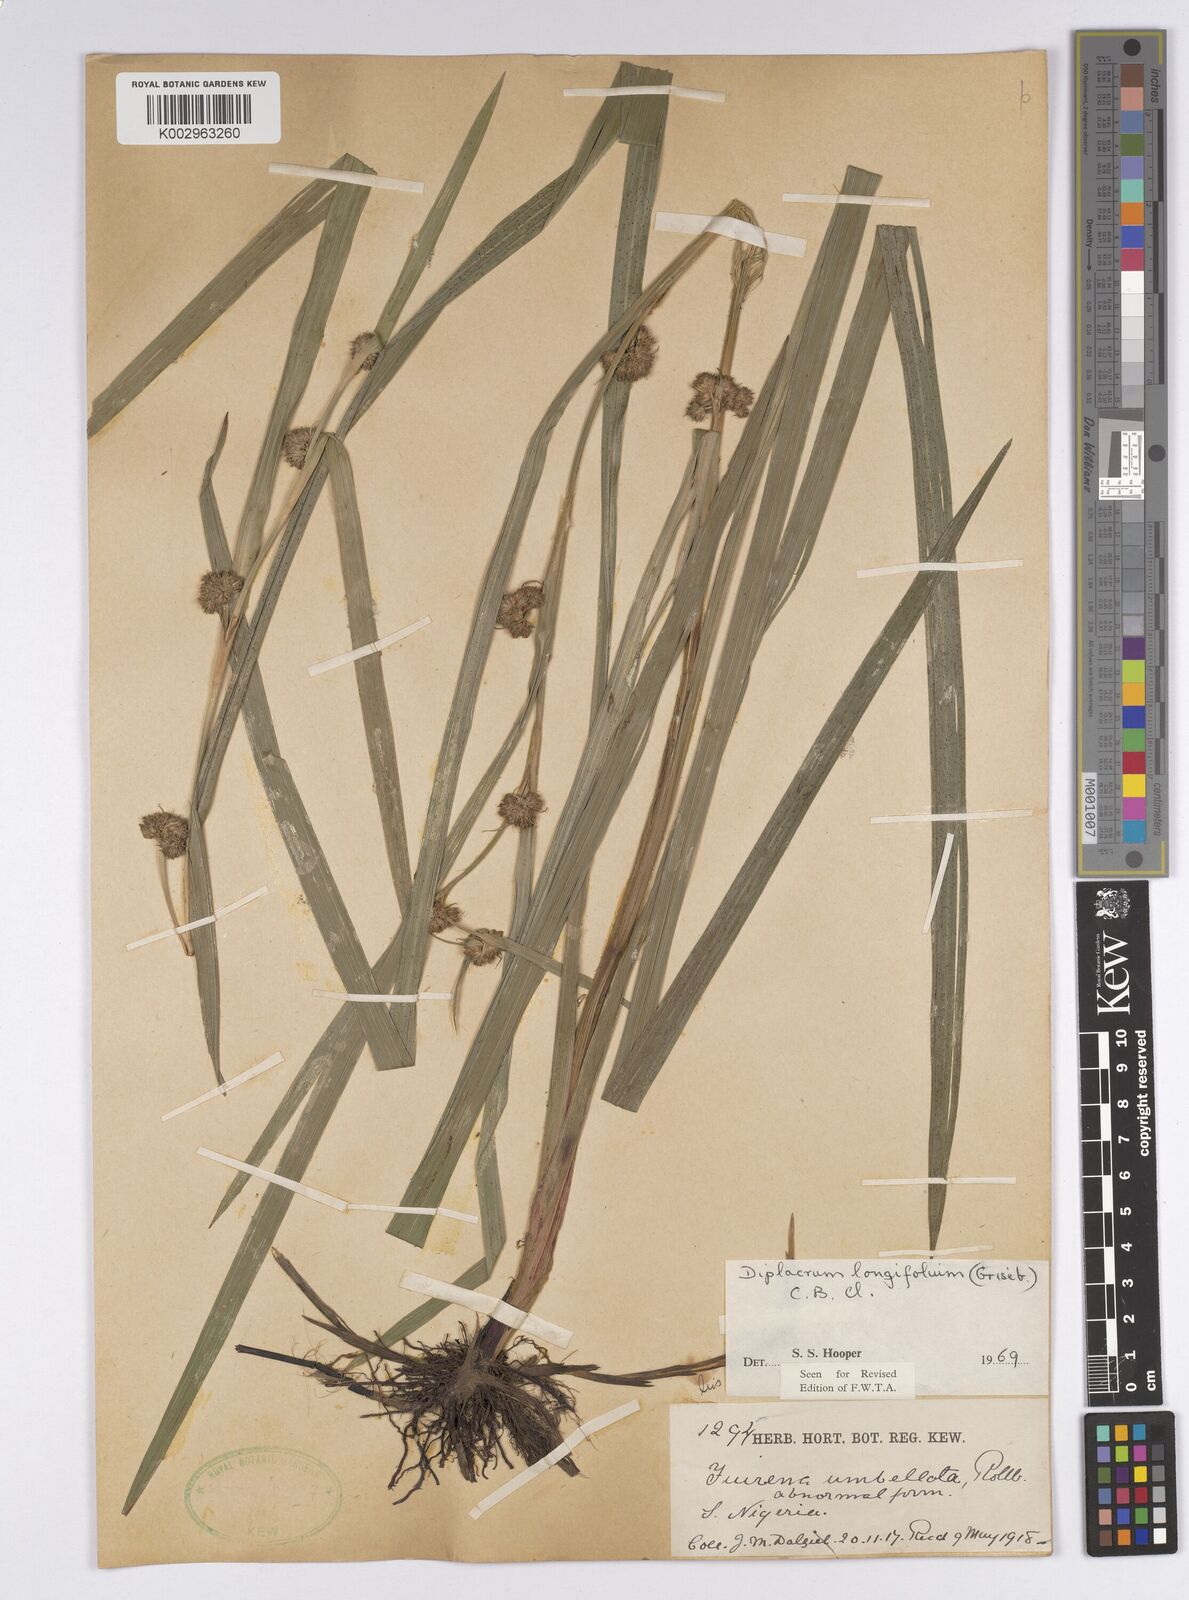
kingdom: Plantae
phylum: Tracheophyta
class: Liliopsida
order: Poales
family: Cyperaceae
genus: Diplacrum
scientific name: Diplacrum capitatum
